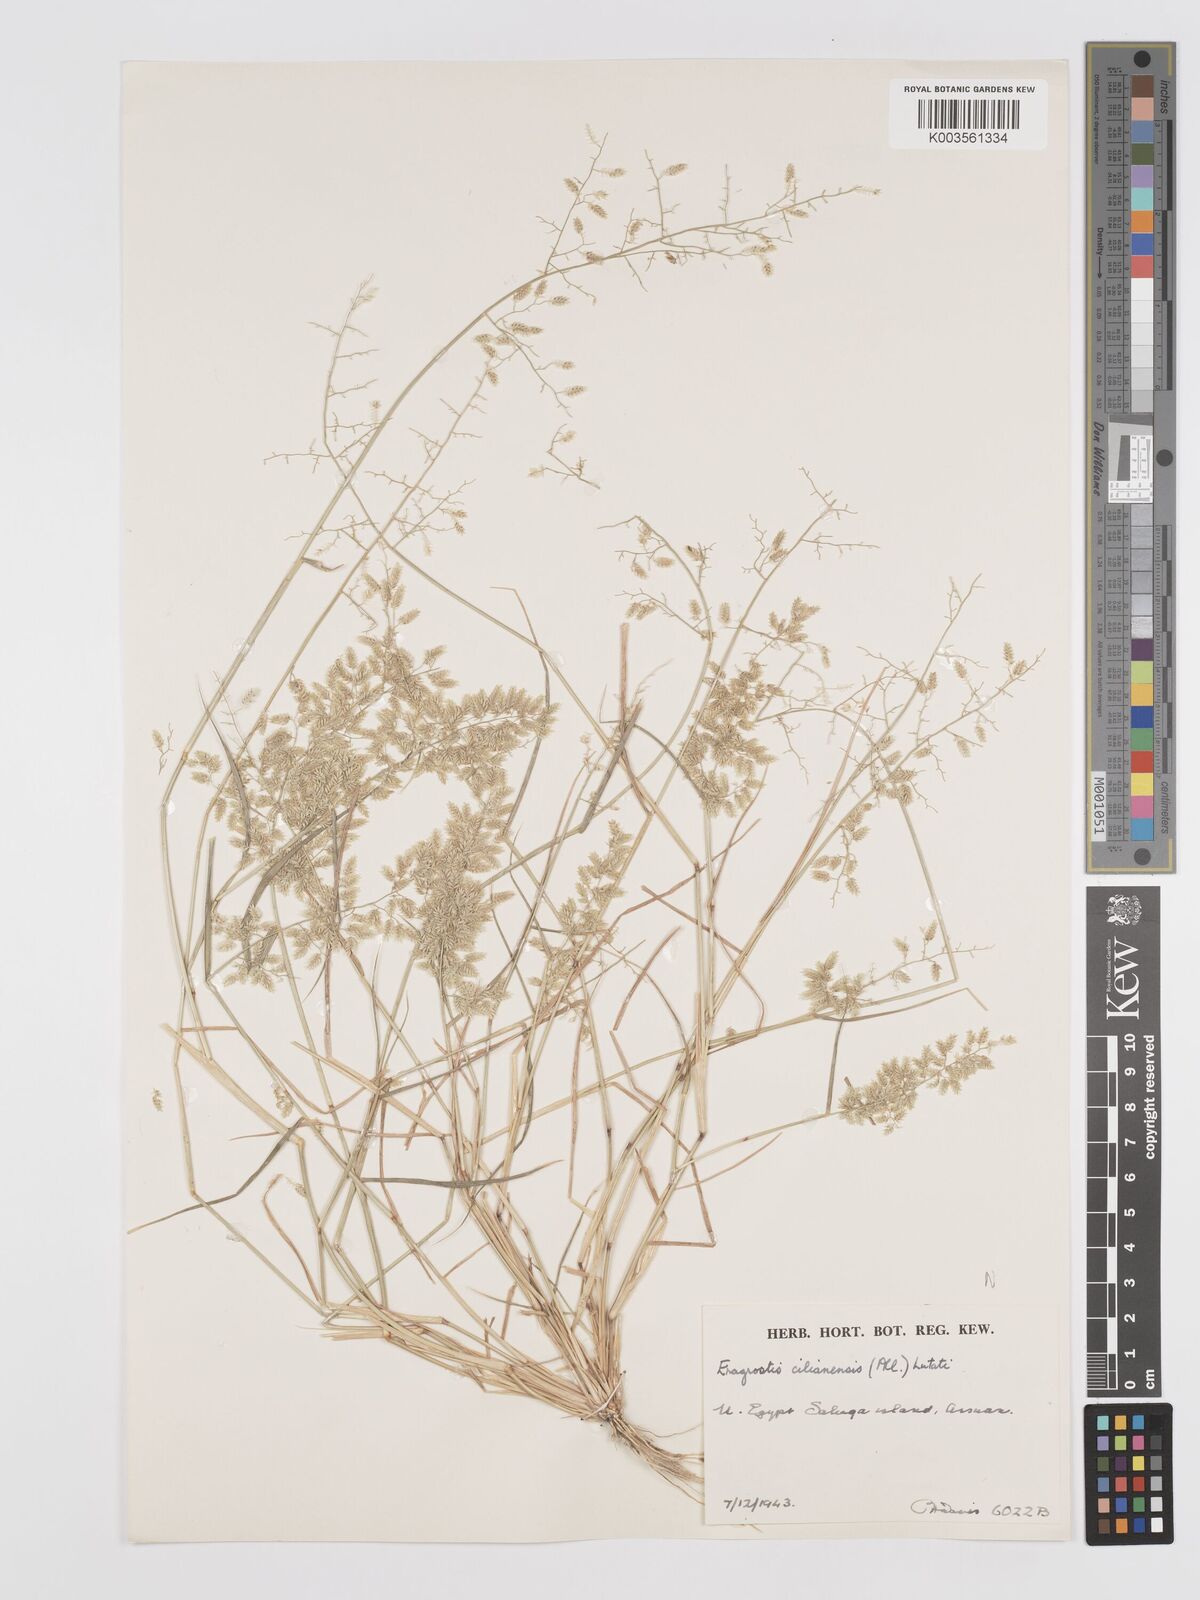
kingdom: Plantae
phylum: Tracheophyta
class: Liliopsida
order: Poales
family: Poaceae
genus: Eragrostis
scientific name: Eragrostis cilianensis
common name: Stinkgrass
